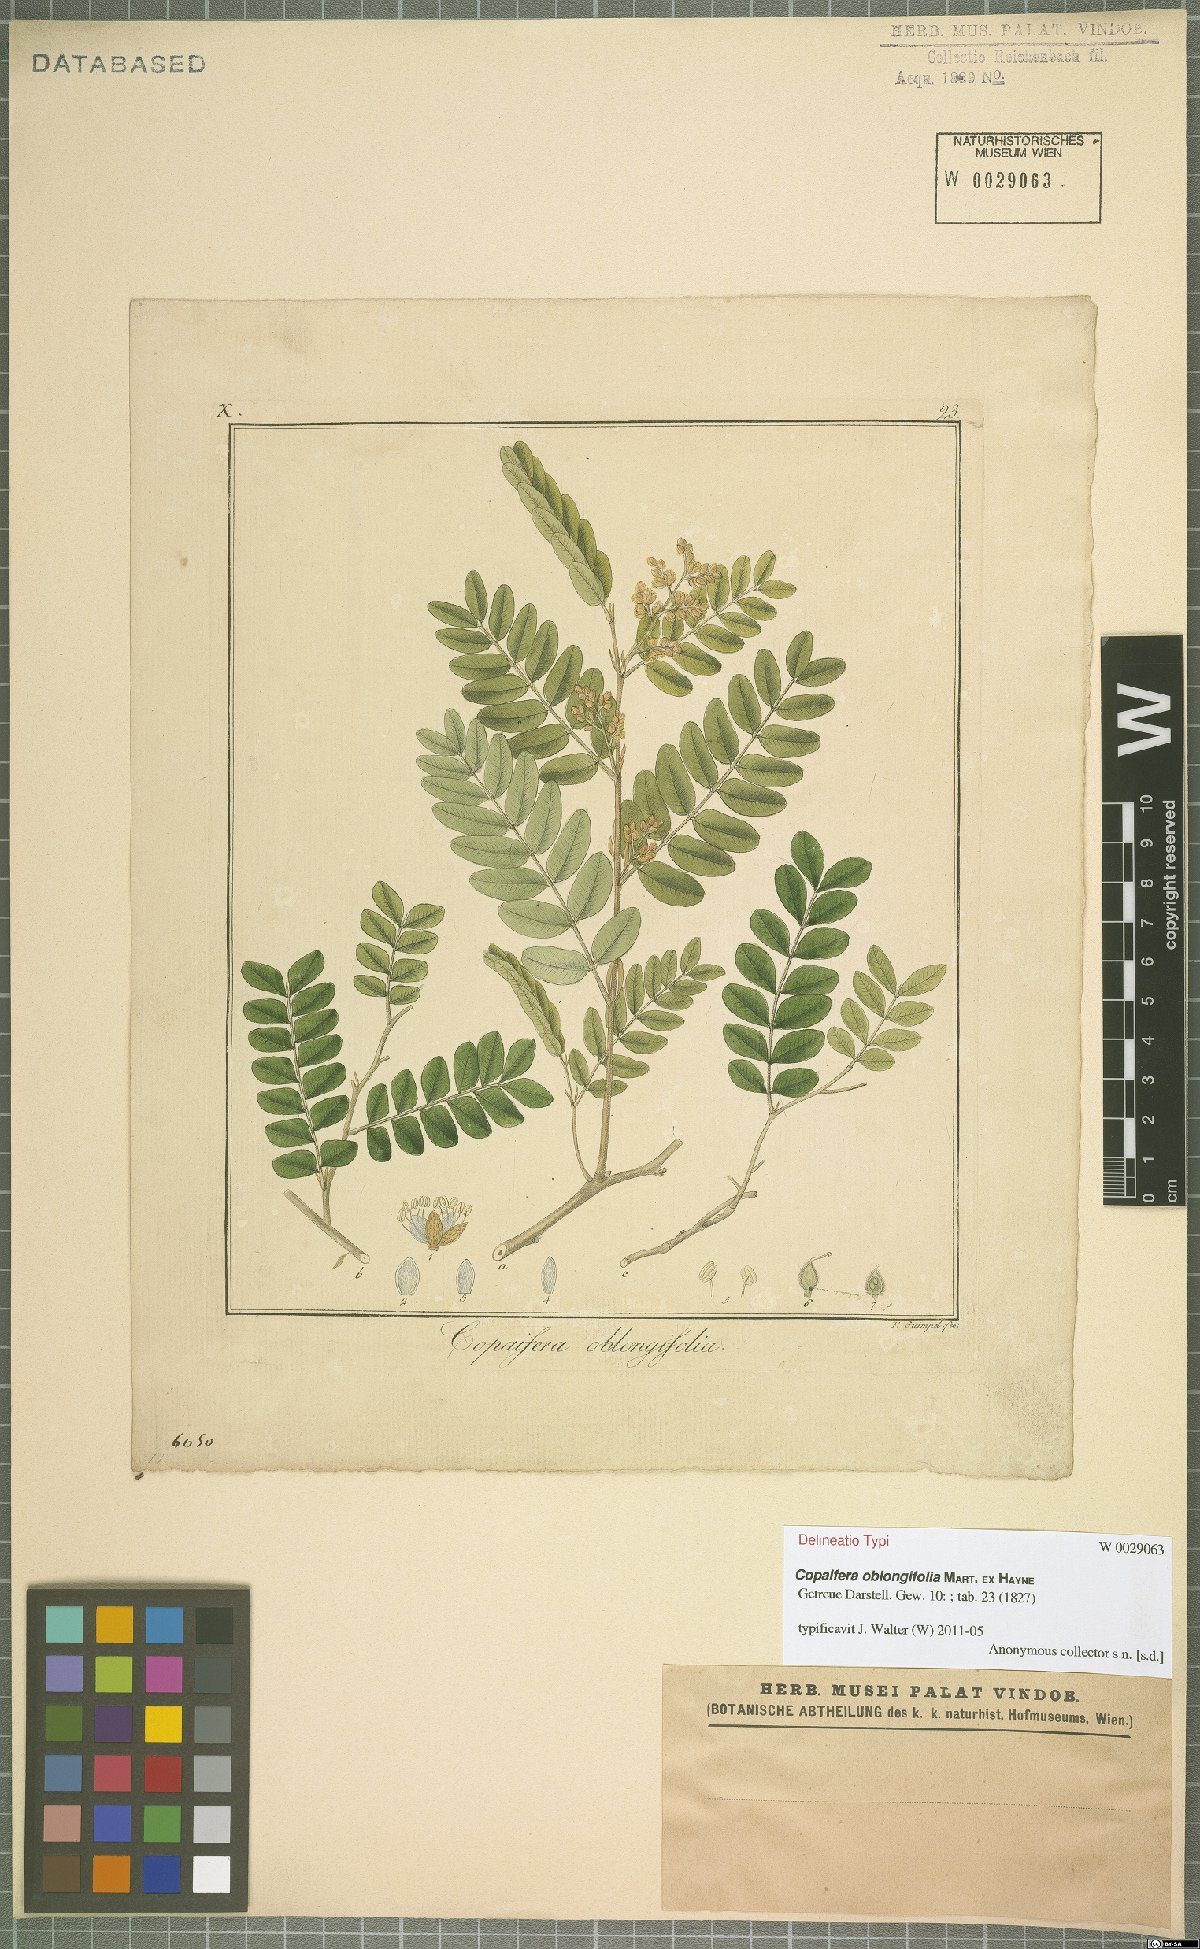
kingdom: Plantae
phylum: Tracheophyta
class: Magnoliopsida
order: Fabales
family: Fabaceae
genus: Copaifera
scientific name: Copaifera oblongifolia
